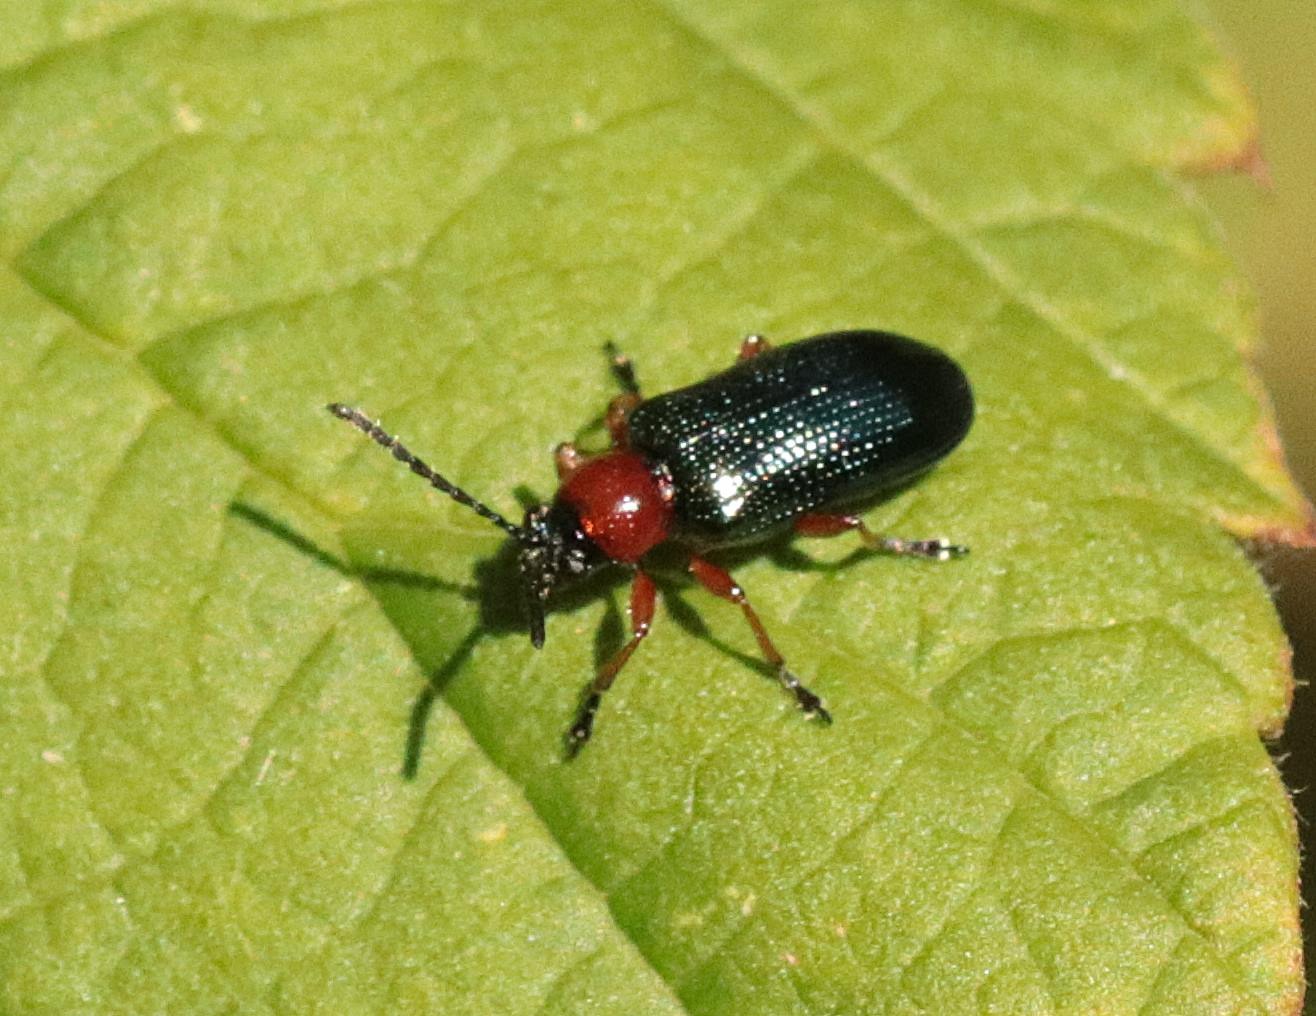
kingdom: Animalia
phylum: Arthropoda
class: Insecta
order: Coleoptera
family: Chrysomelidae
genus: Oulema
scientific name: Oulema
